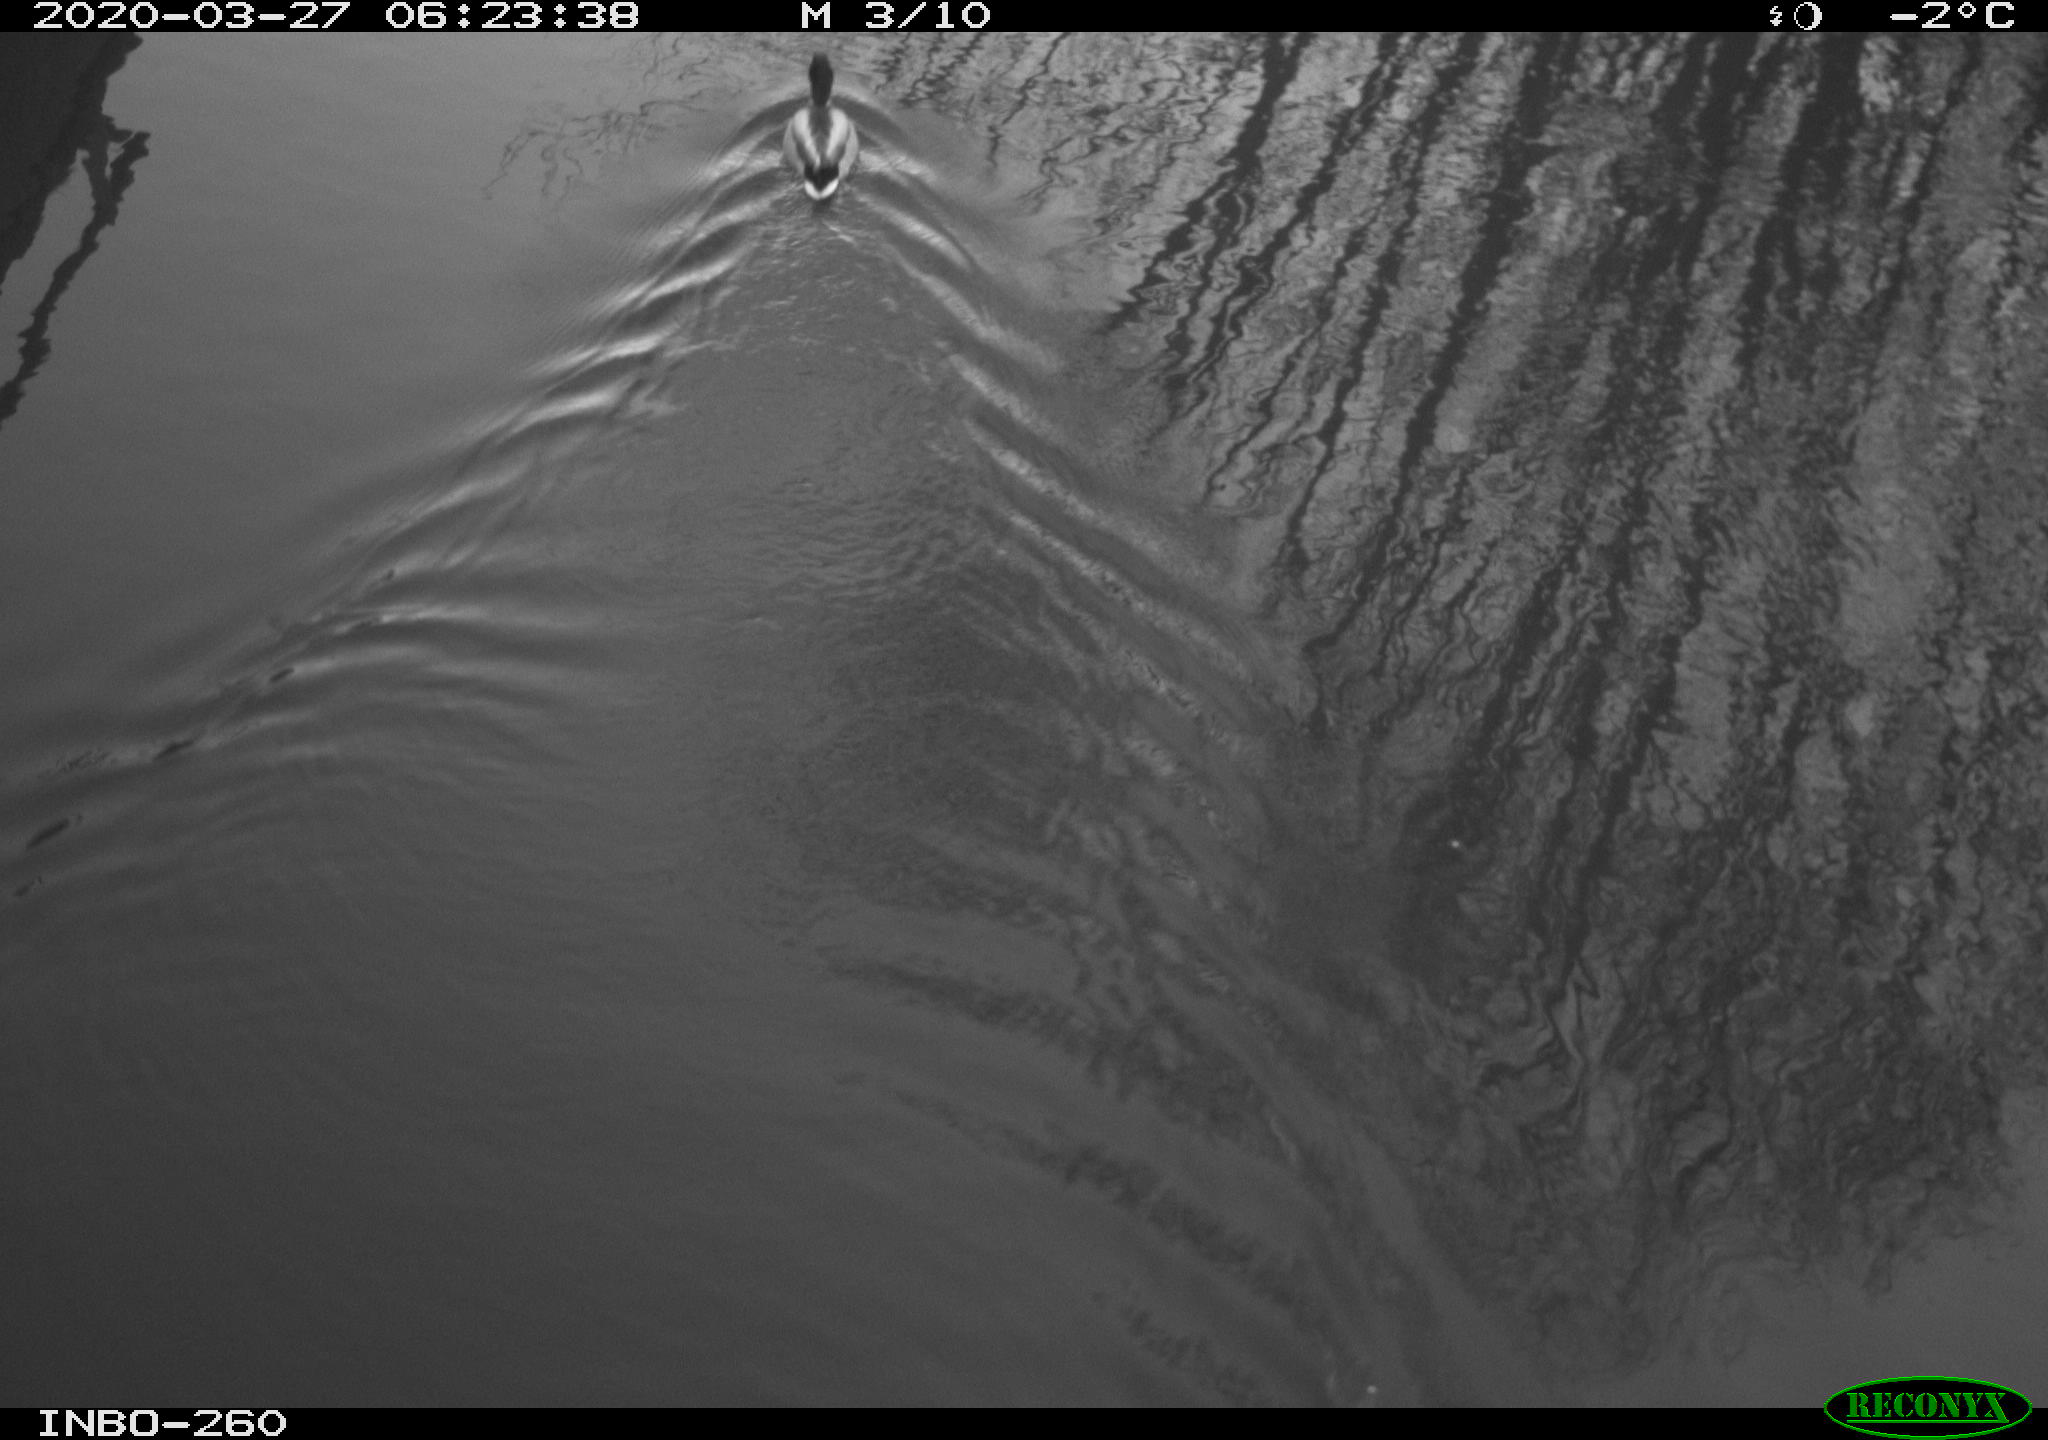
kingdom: Animalia
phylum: Chordata
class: Aves
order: Anseriformes
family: Anatidae
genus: Anas
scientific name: Anas platyrhynchos
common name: Mallard
